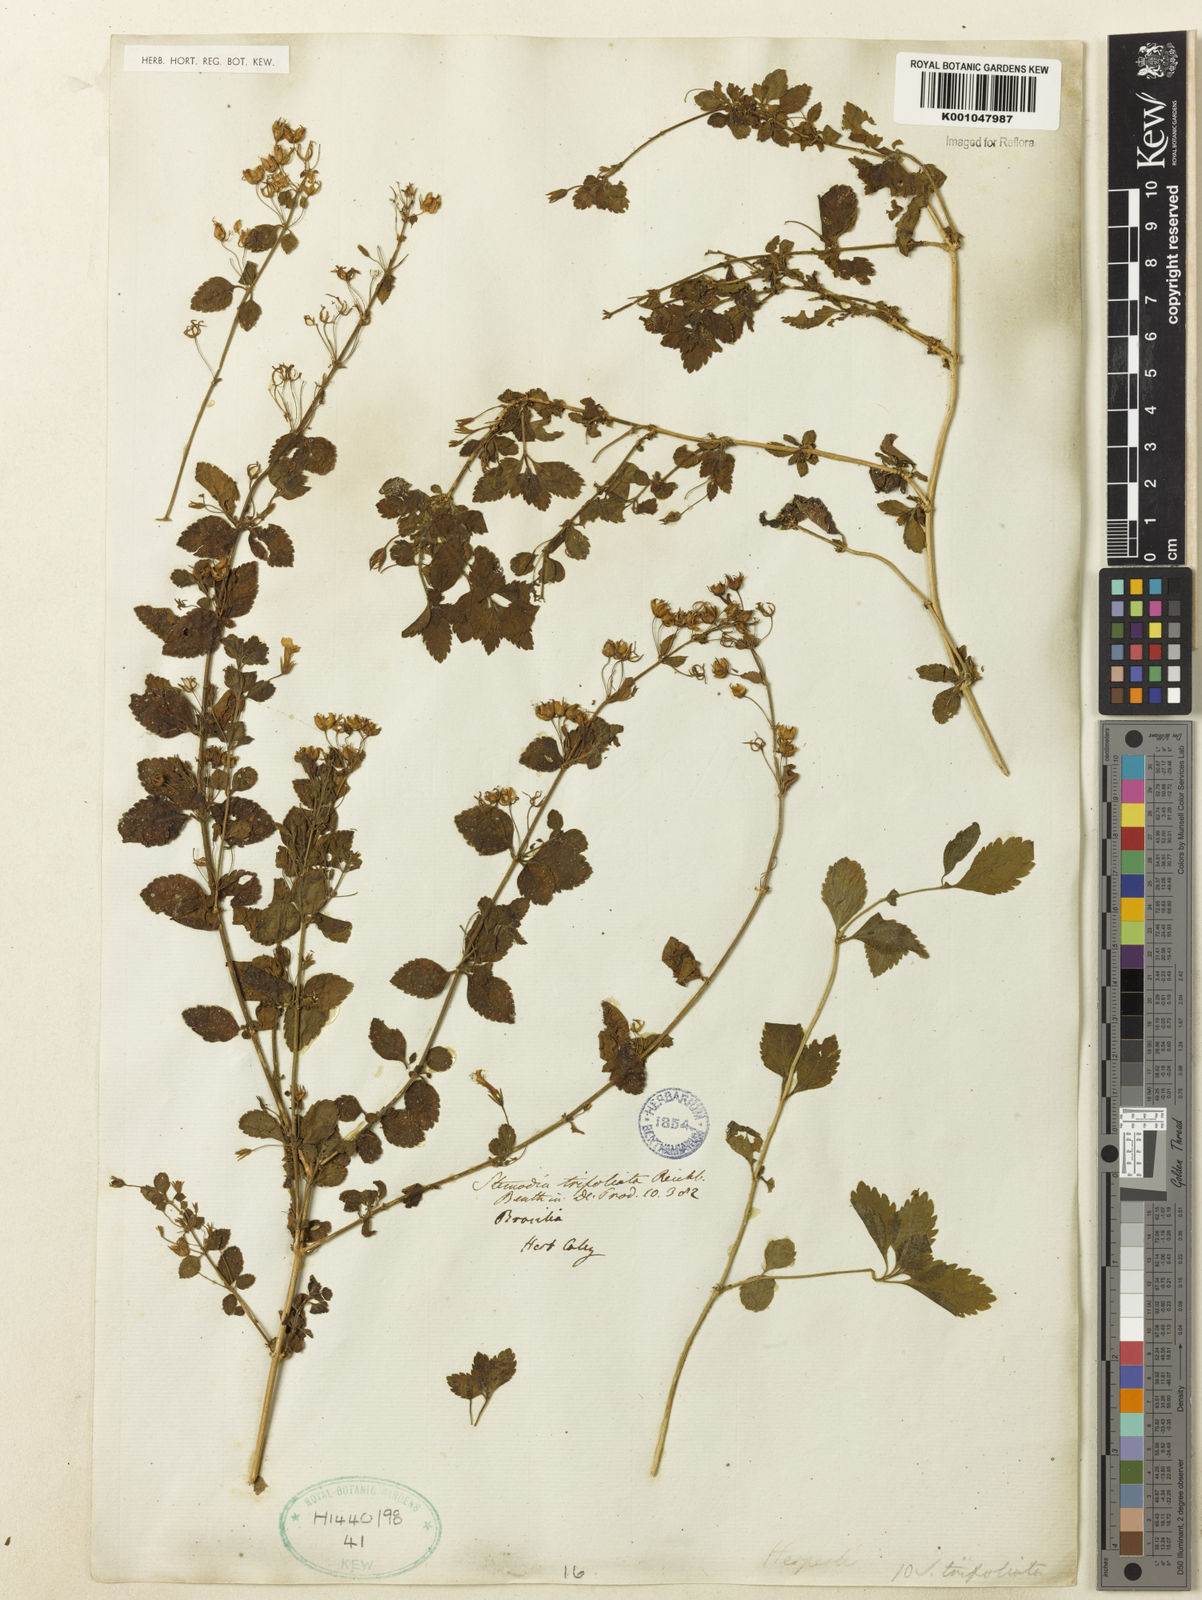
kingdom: Plantae
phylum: Tracheophyta
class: Magnoliopsida
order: Lamiales
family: Plantaginaceae
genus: Stemodia
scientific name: Stemodia trifoliata
